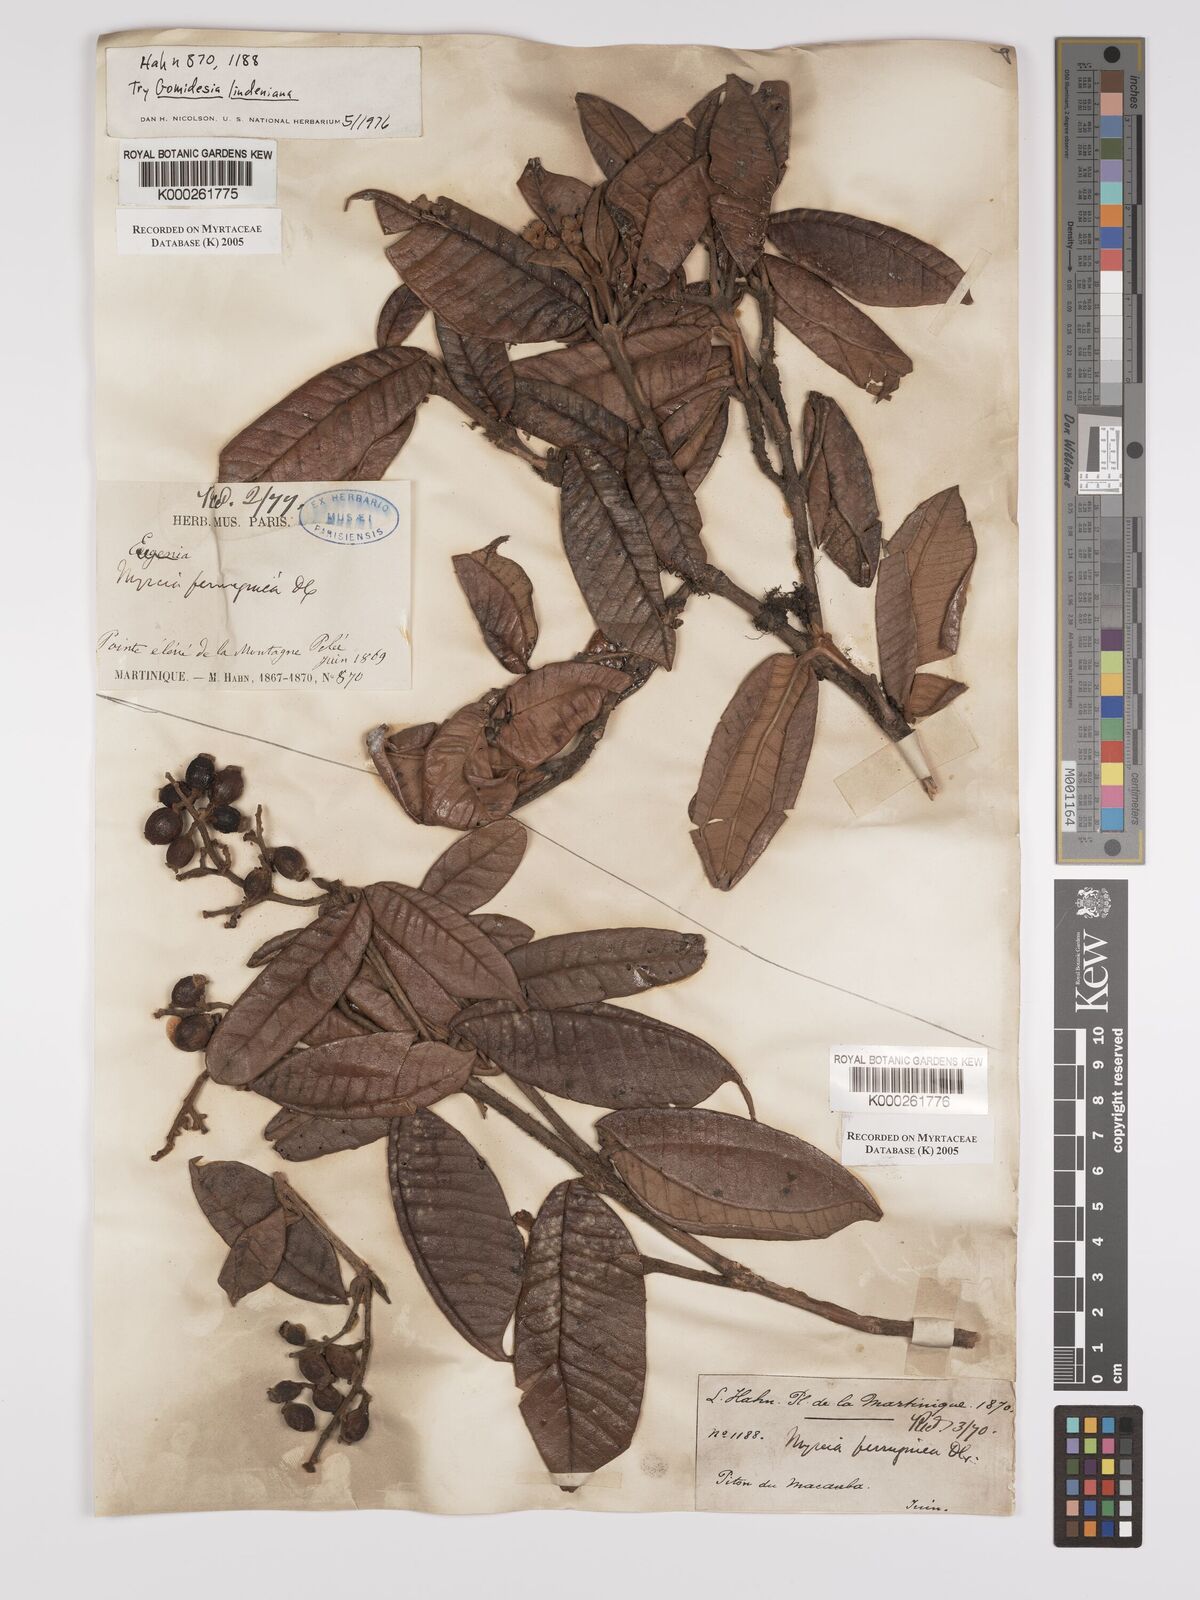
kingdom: Plantae
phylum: Tracheophyta
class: Magnoliopsida
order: Myrtales
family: Myrtaceae
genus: Myrcia
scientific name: Myrcia ferruginea
